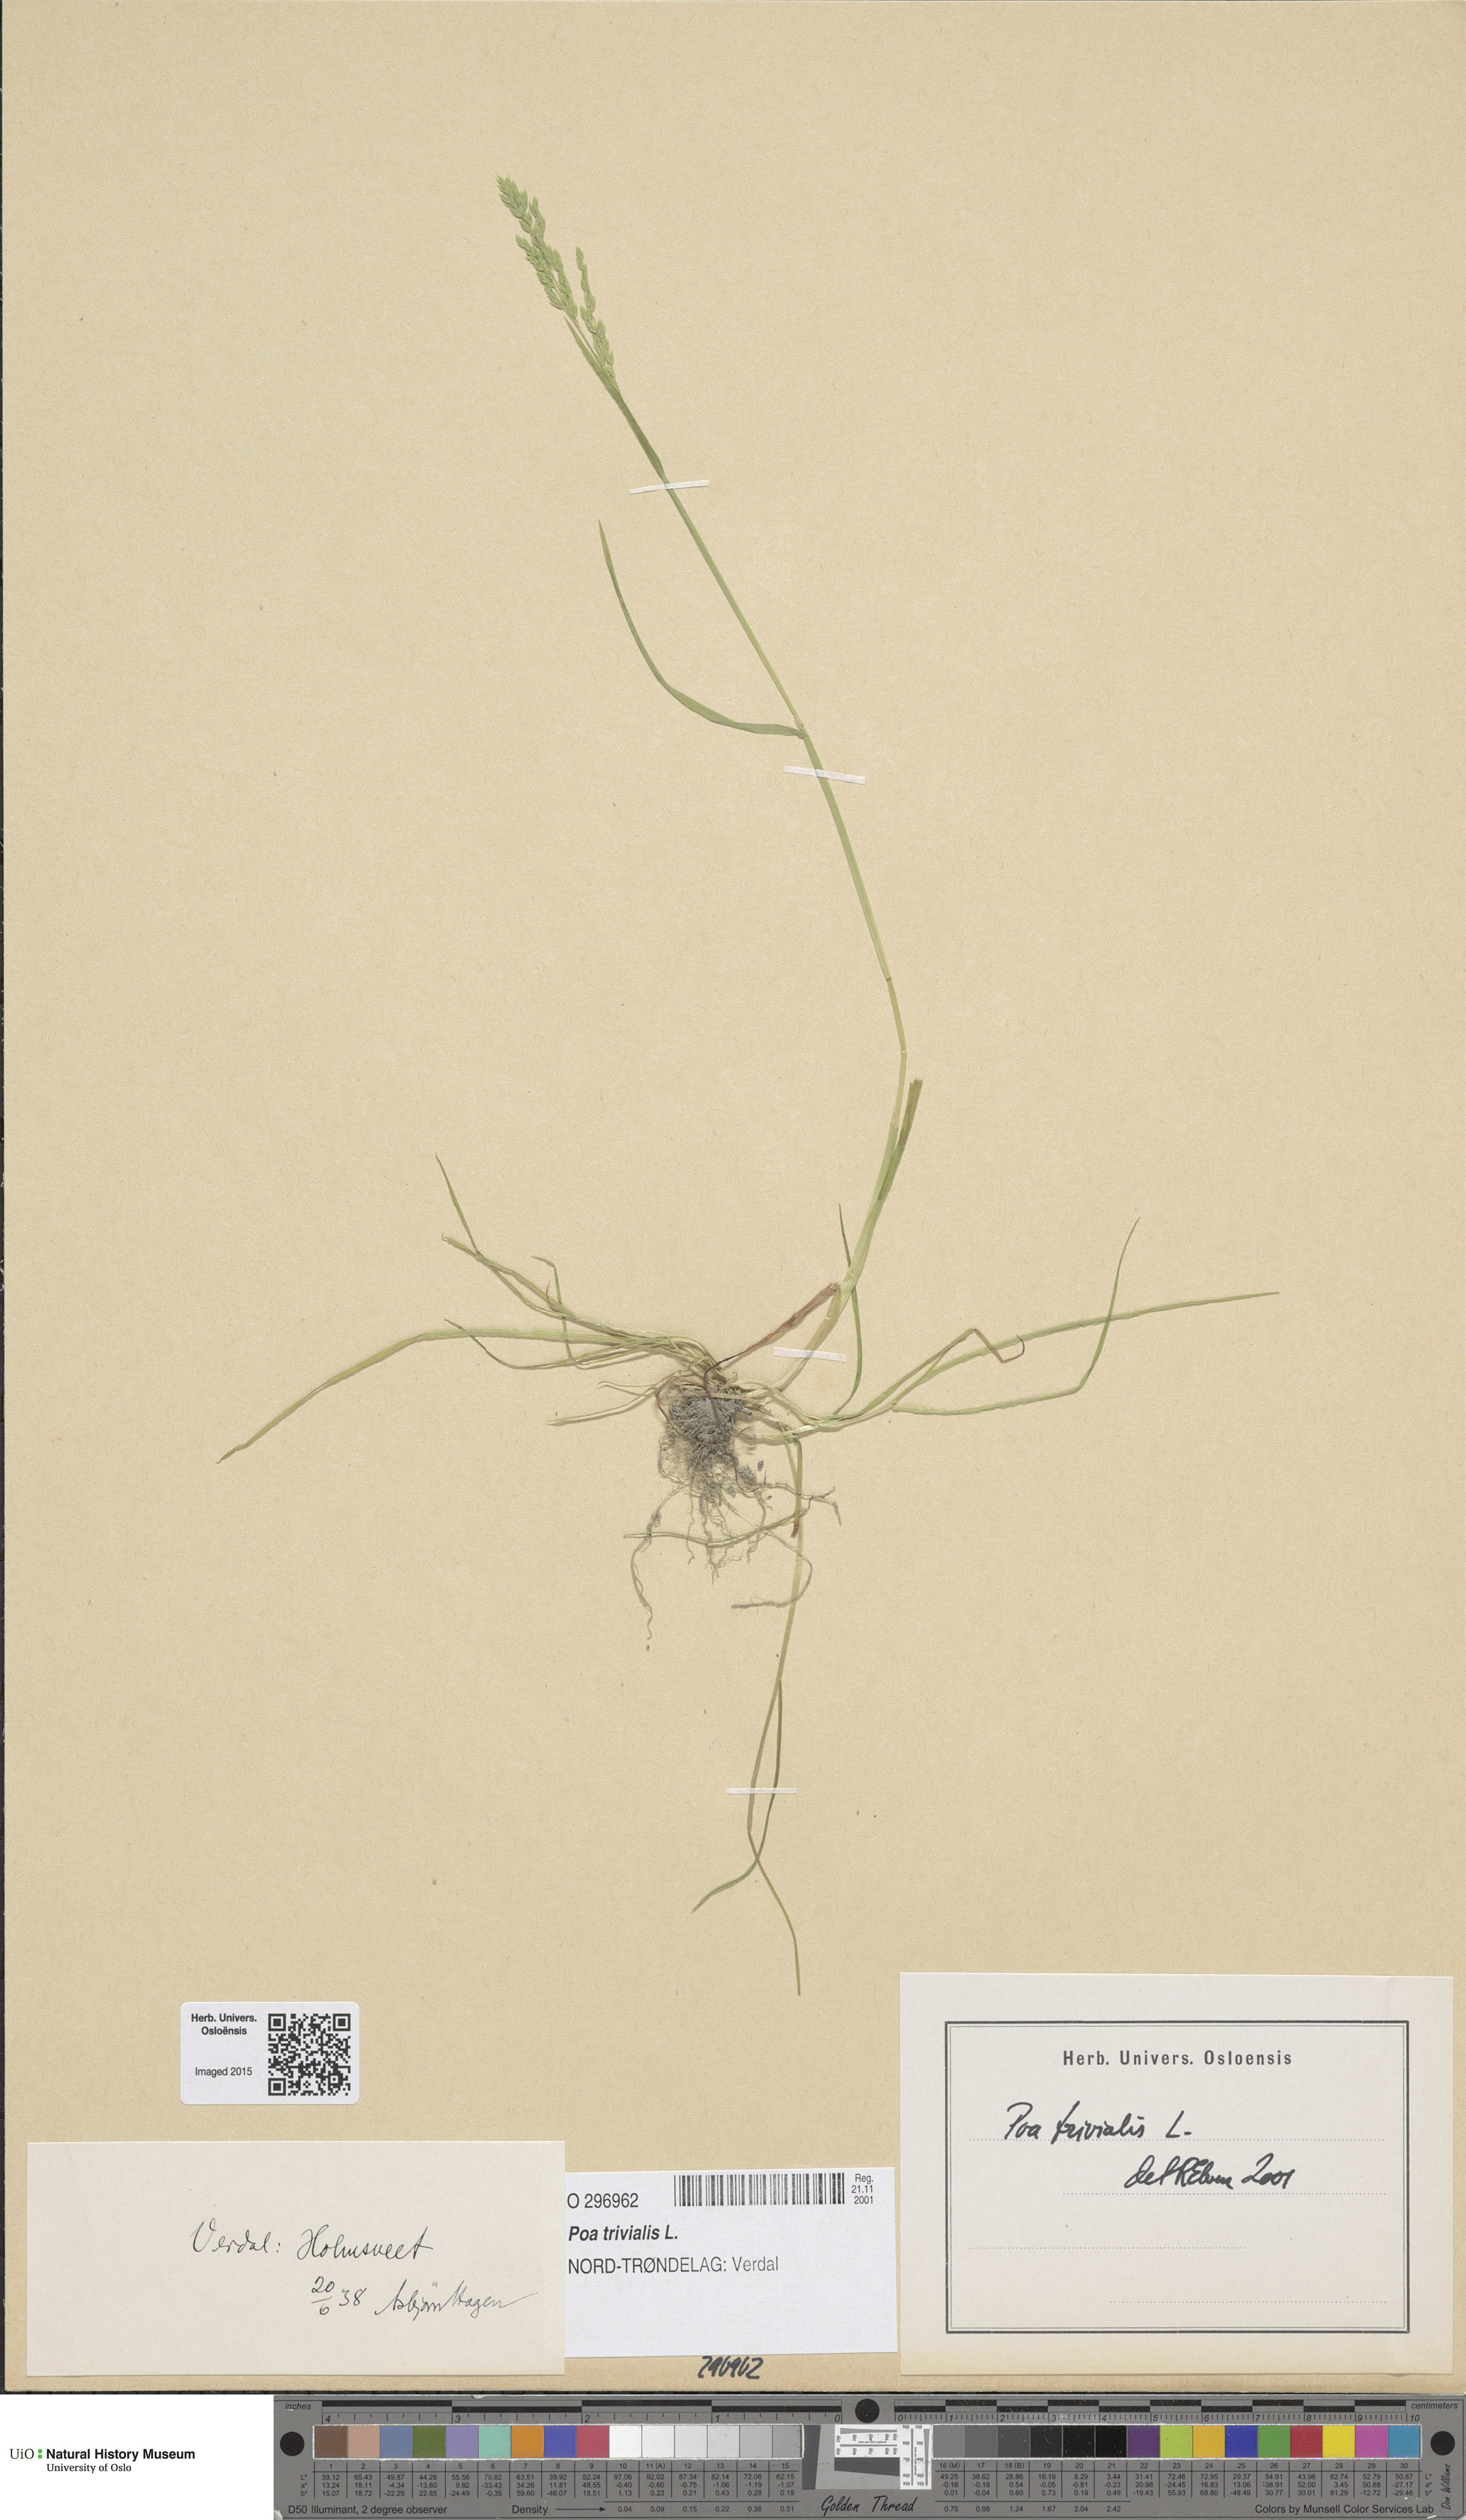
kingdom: Plantae
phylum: Tracheophyta
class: Liliopsida
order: Poales
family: Poaceae
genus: Poa
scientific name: Poa trivialis
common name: Rough bluegrass
